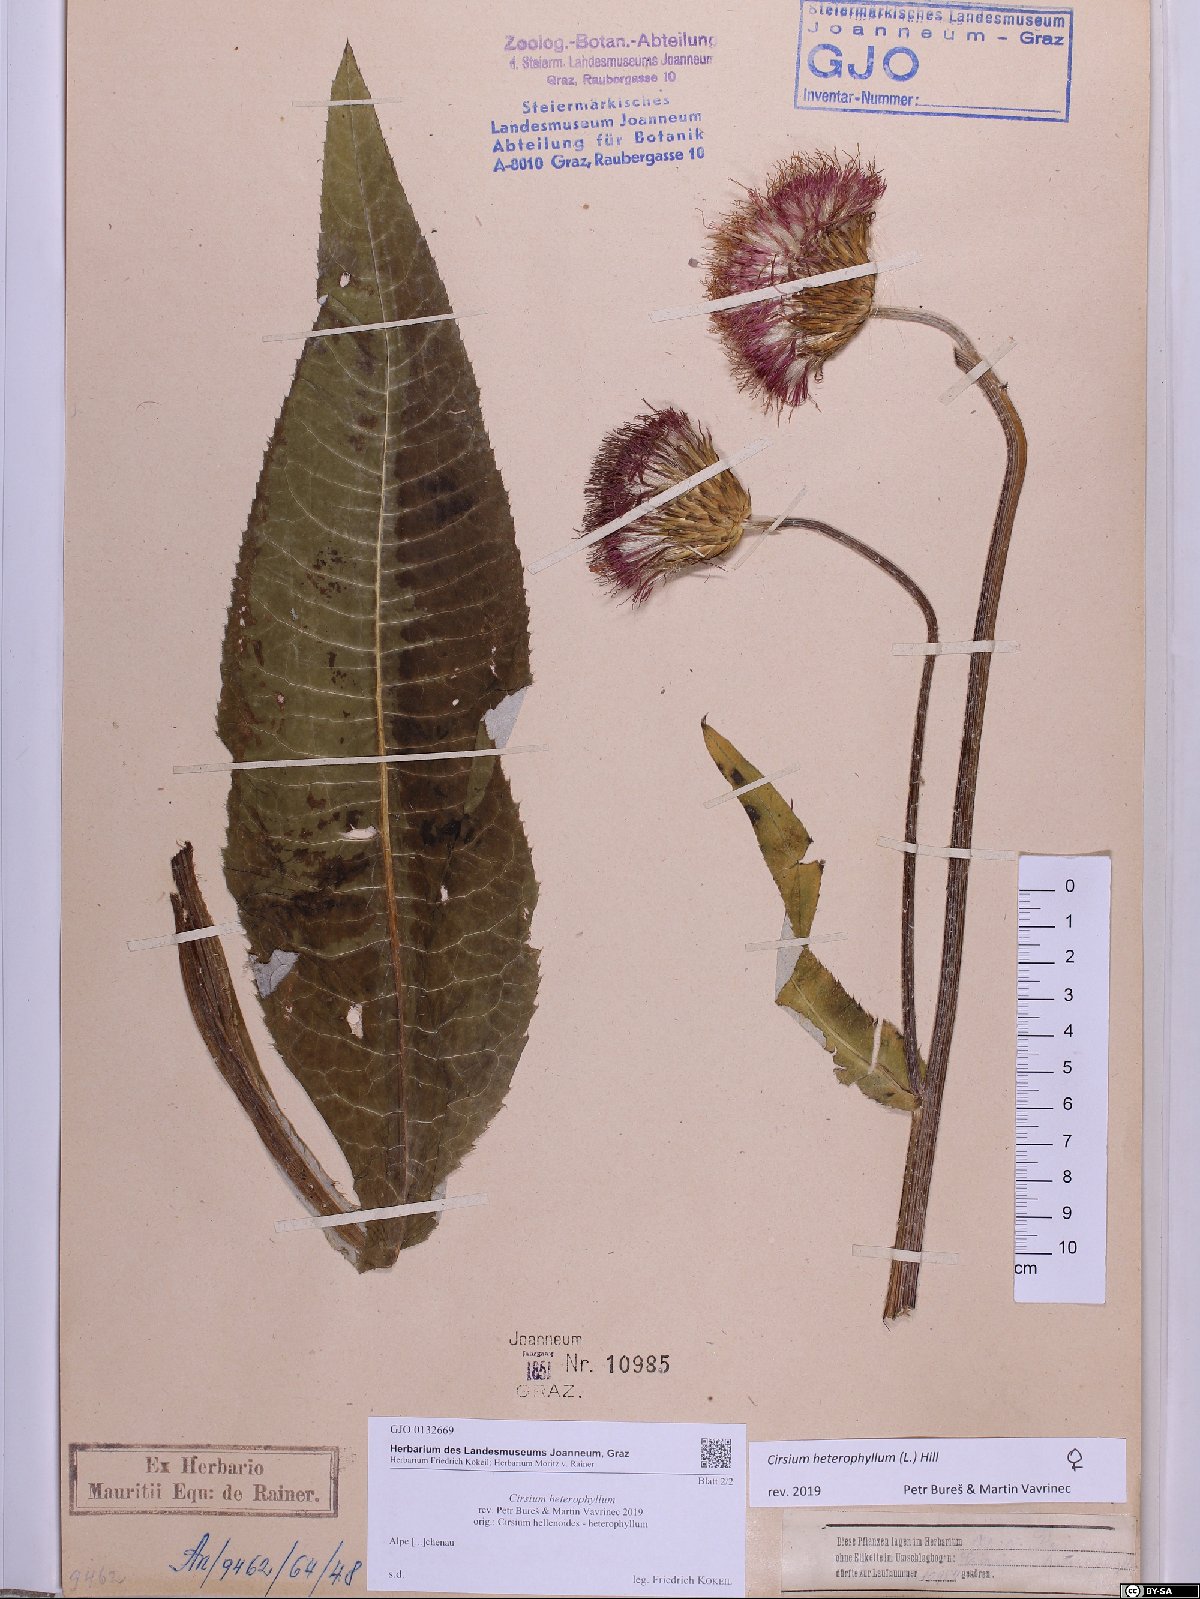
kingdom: Plantae
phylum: Tracheophyta
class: Magnoliopsida
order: Asterales
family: Asteraceae
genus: Cirsium
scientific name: Cirsium heterophyllum
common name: Melancholy thistle
